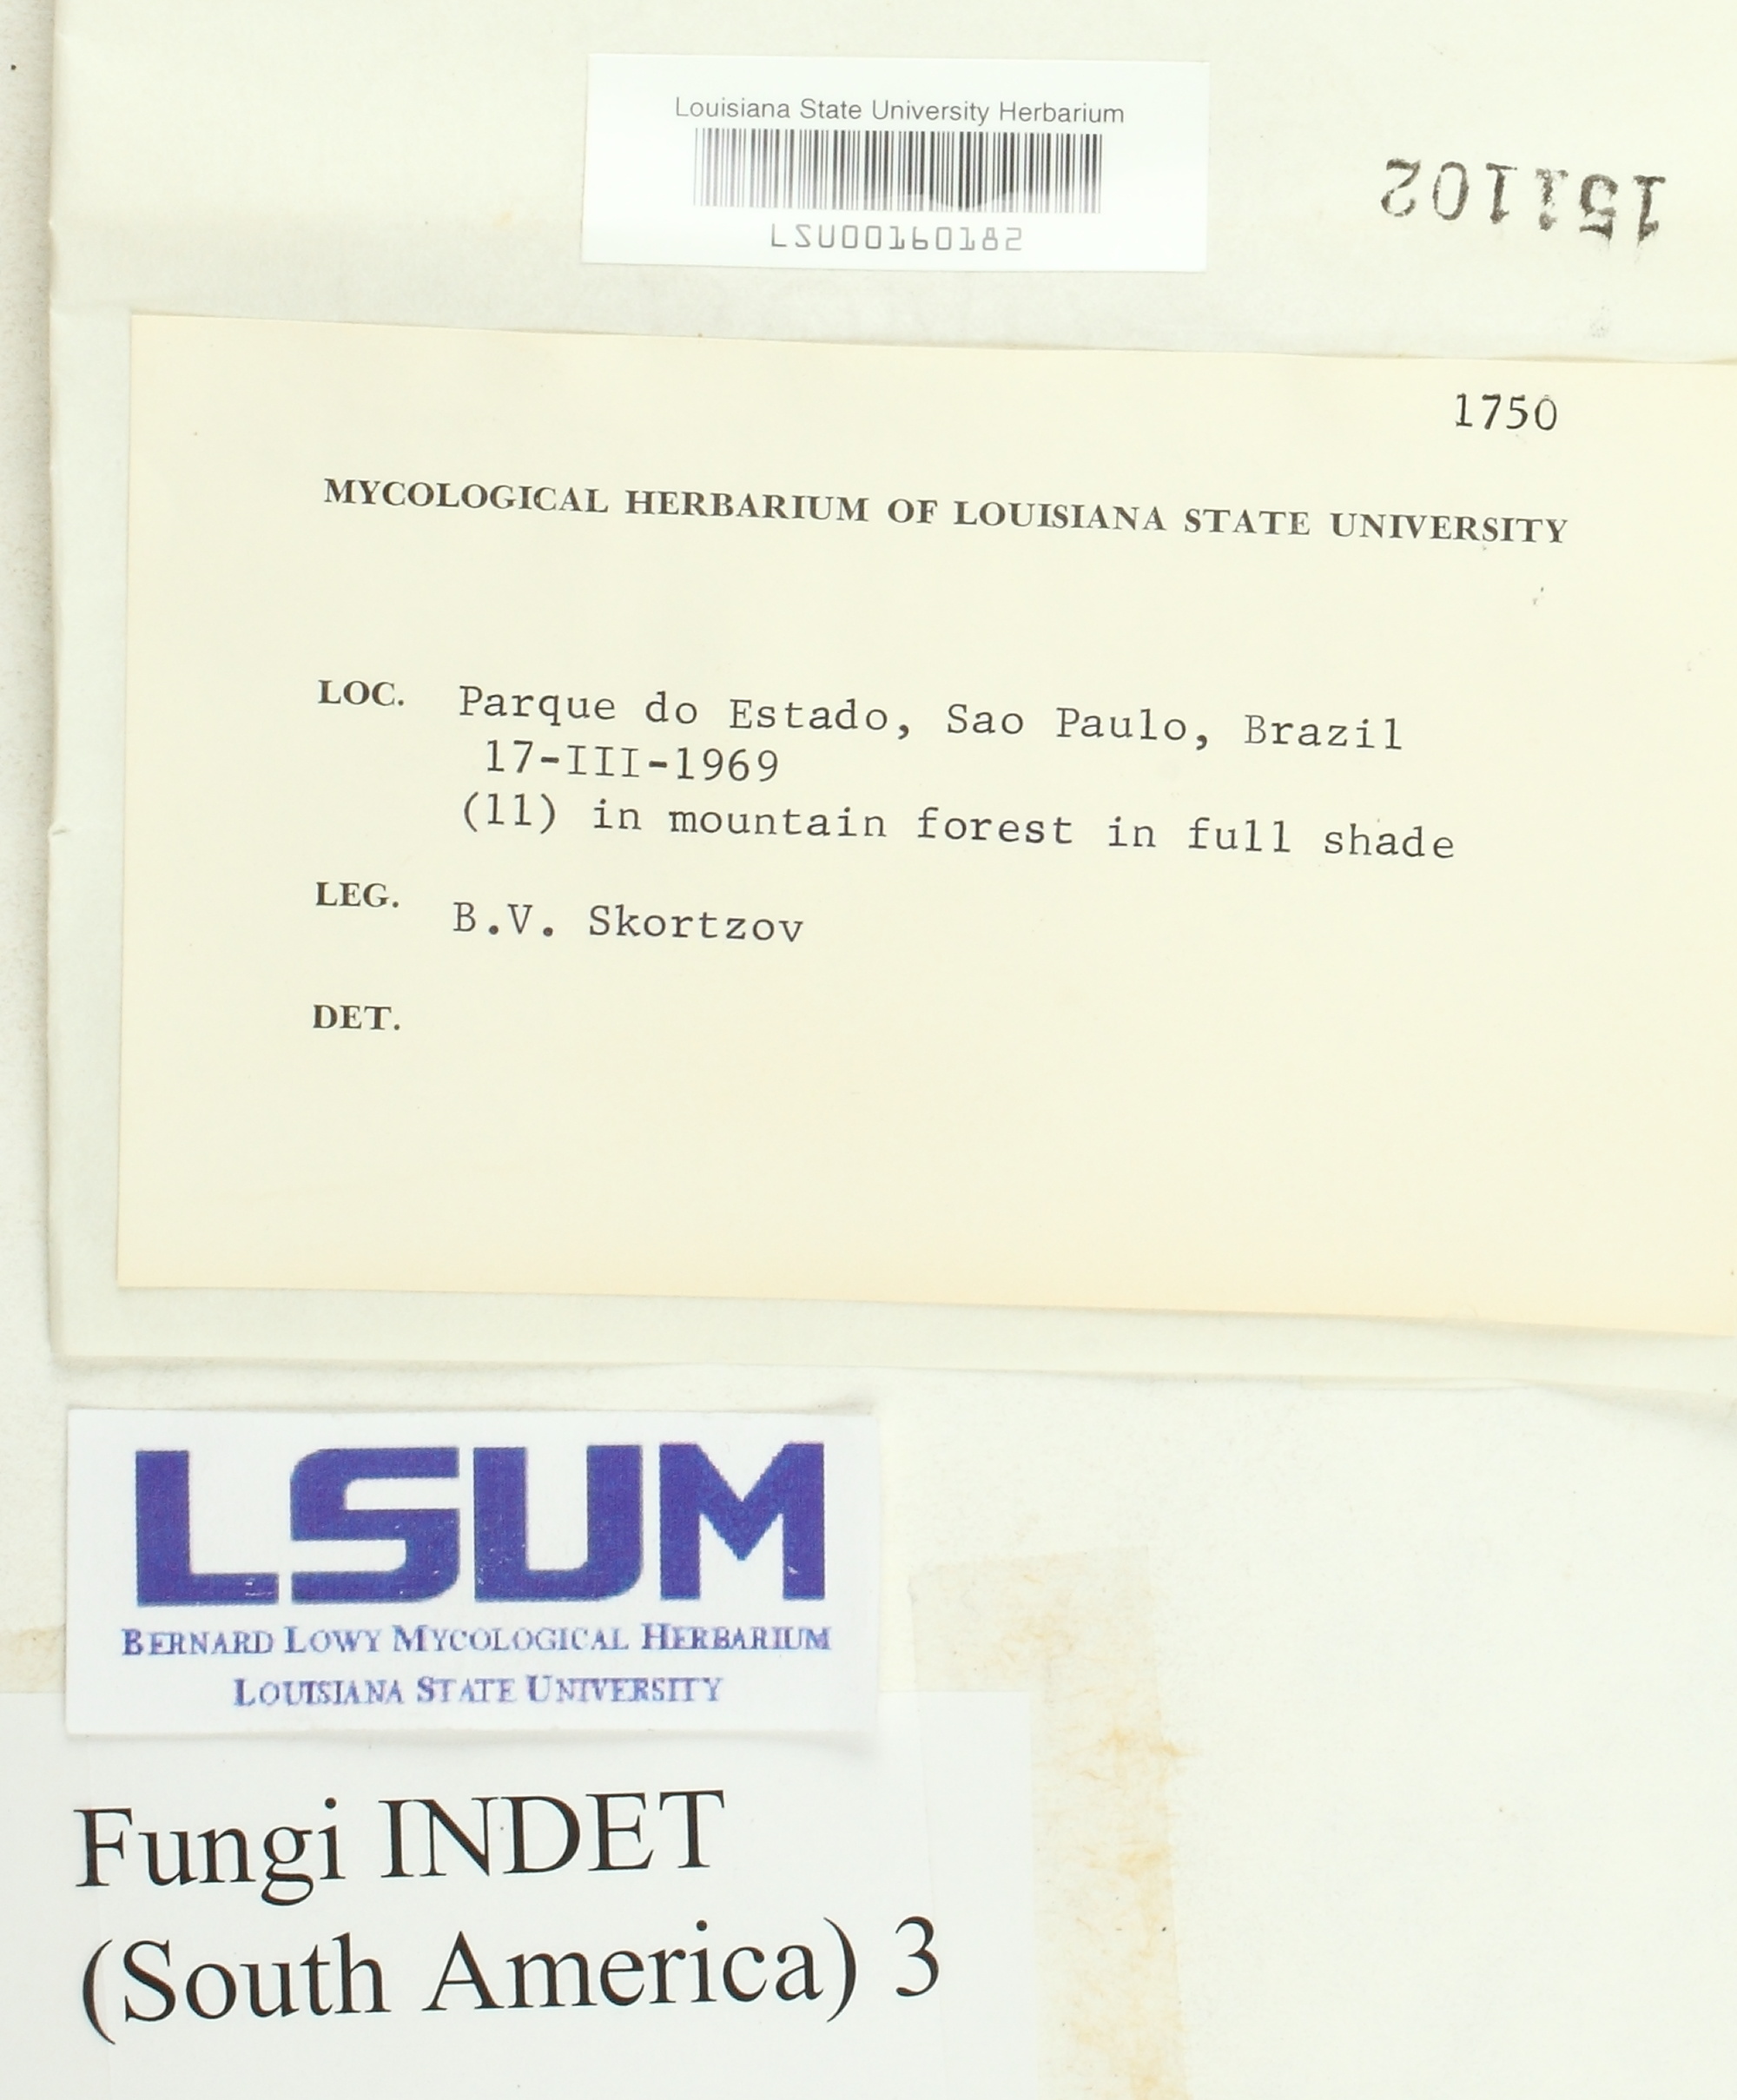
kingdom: Fungi
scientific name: Fungi
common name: Fungi
